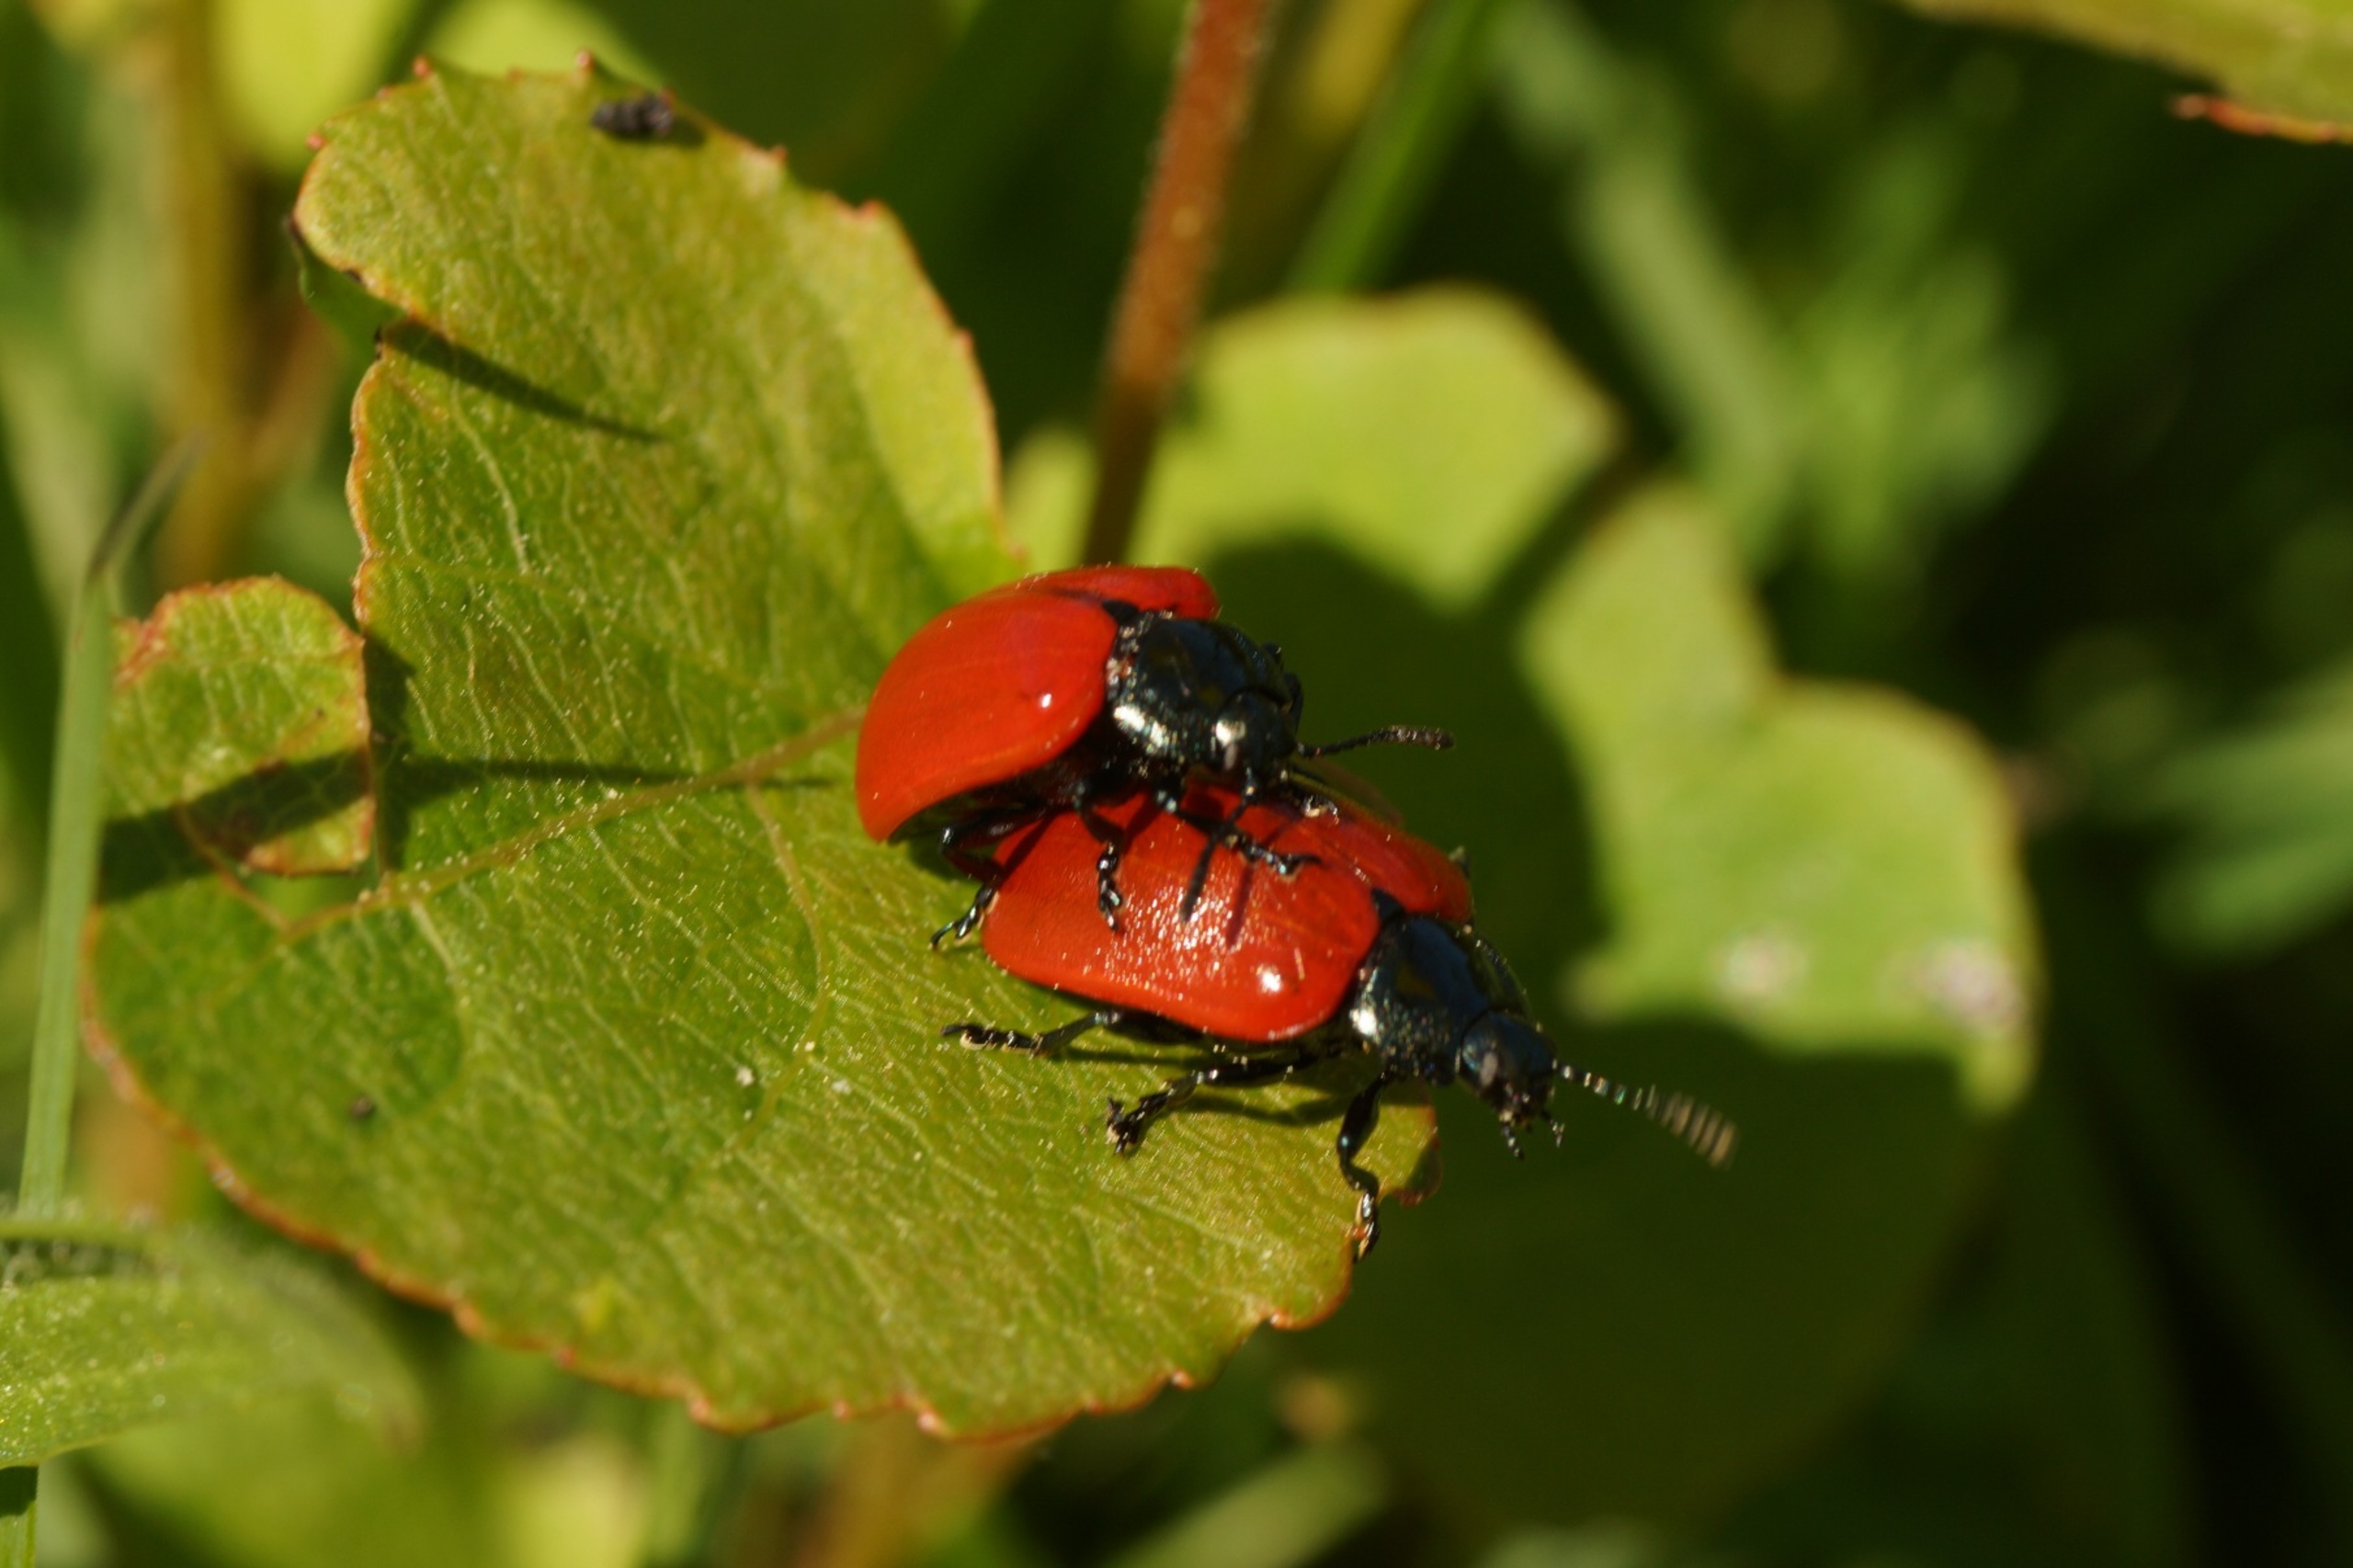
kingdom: Animalia
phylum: Arthropoda
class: Insecta
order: Coleoptera
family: Chrysomelidae
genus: Chrysomela
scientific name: Chrysomela populi
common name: Poppelbladbille
